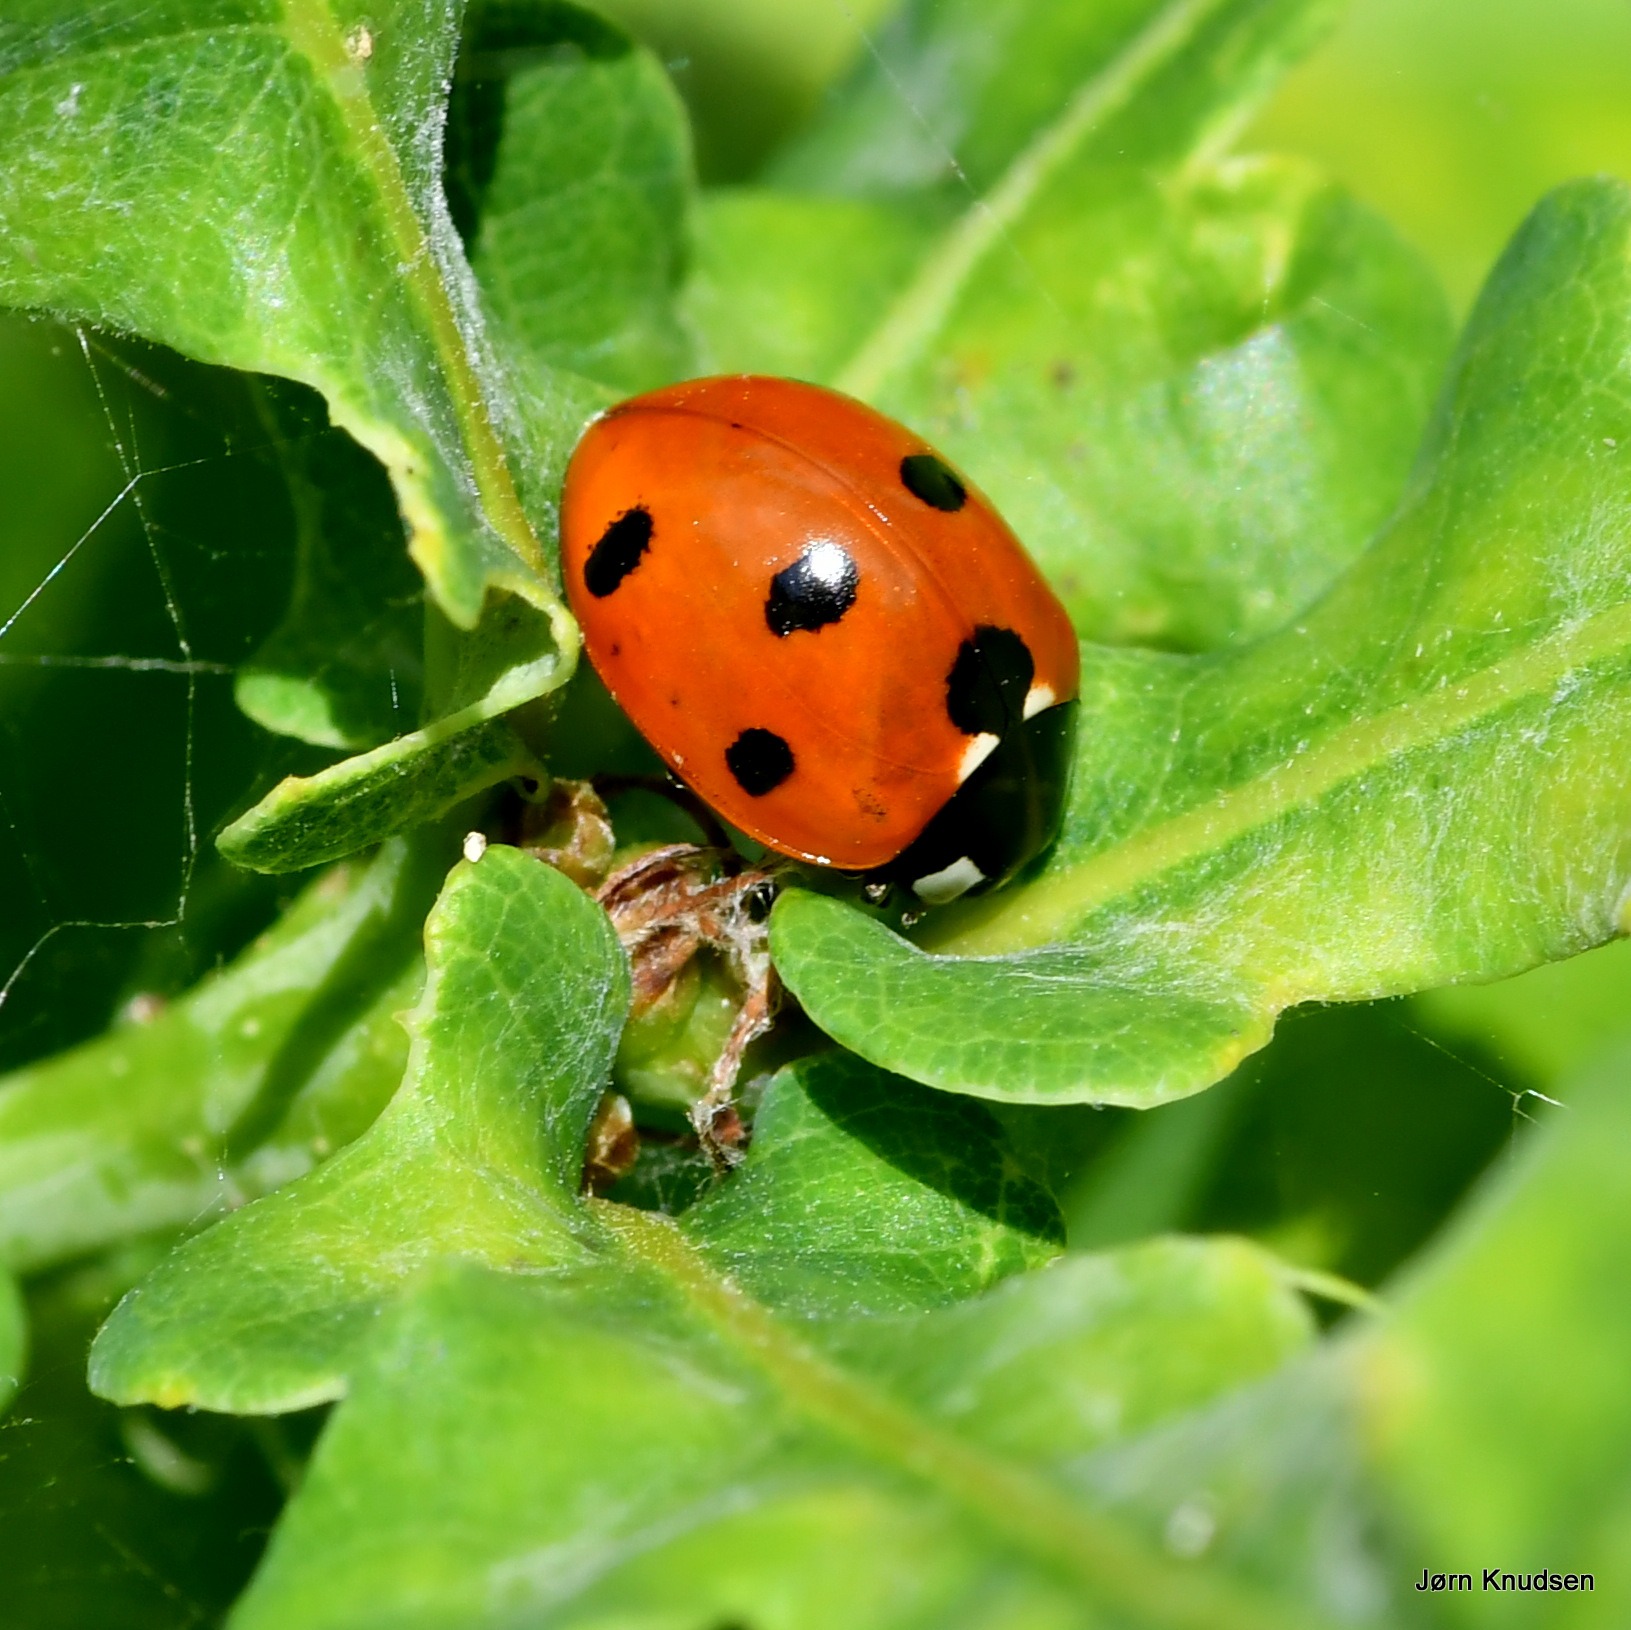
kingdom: Animalia
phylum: Arthropoda
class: Insecta
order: Coleoptera
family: Coccinellidae
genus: Coccinella
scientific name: Coccinella septempunctata
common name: Syvplettet mariehøne
